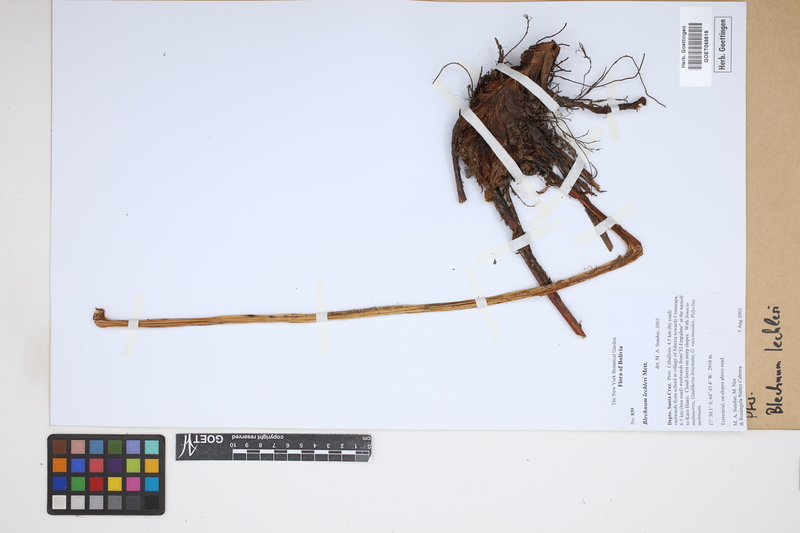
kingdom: Plantae
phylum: Tracheophyta
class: Polypodiopsida
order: Polypodiales
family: Blechnaceae
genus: Parablechnum
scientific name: Parablechnum lechleri
